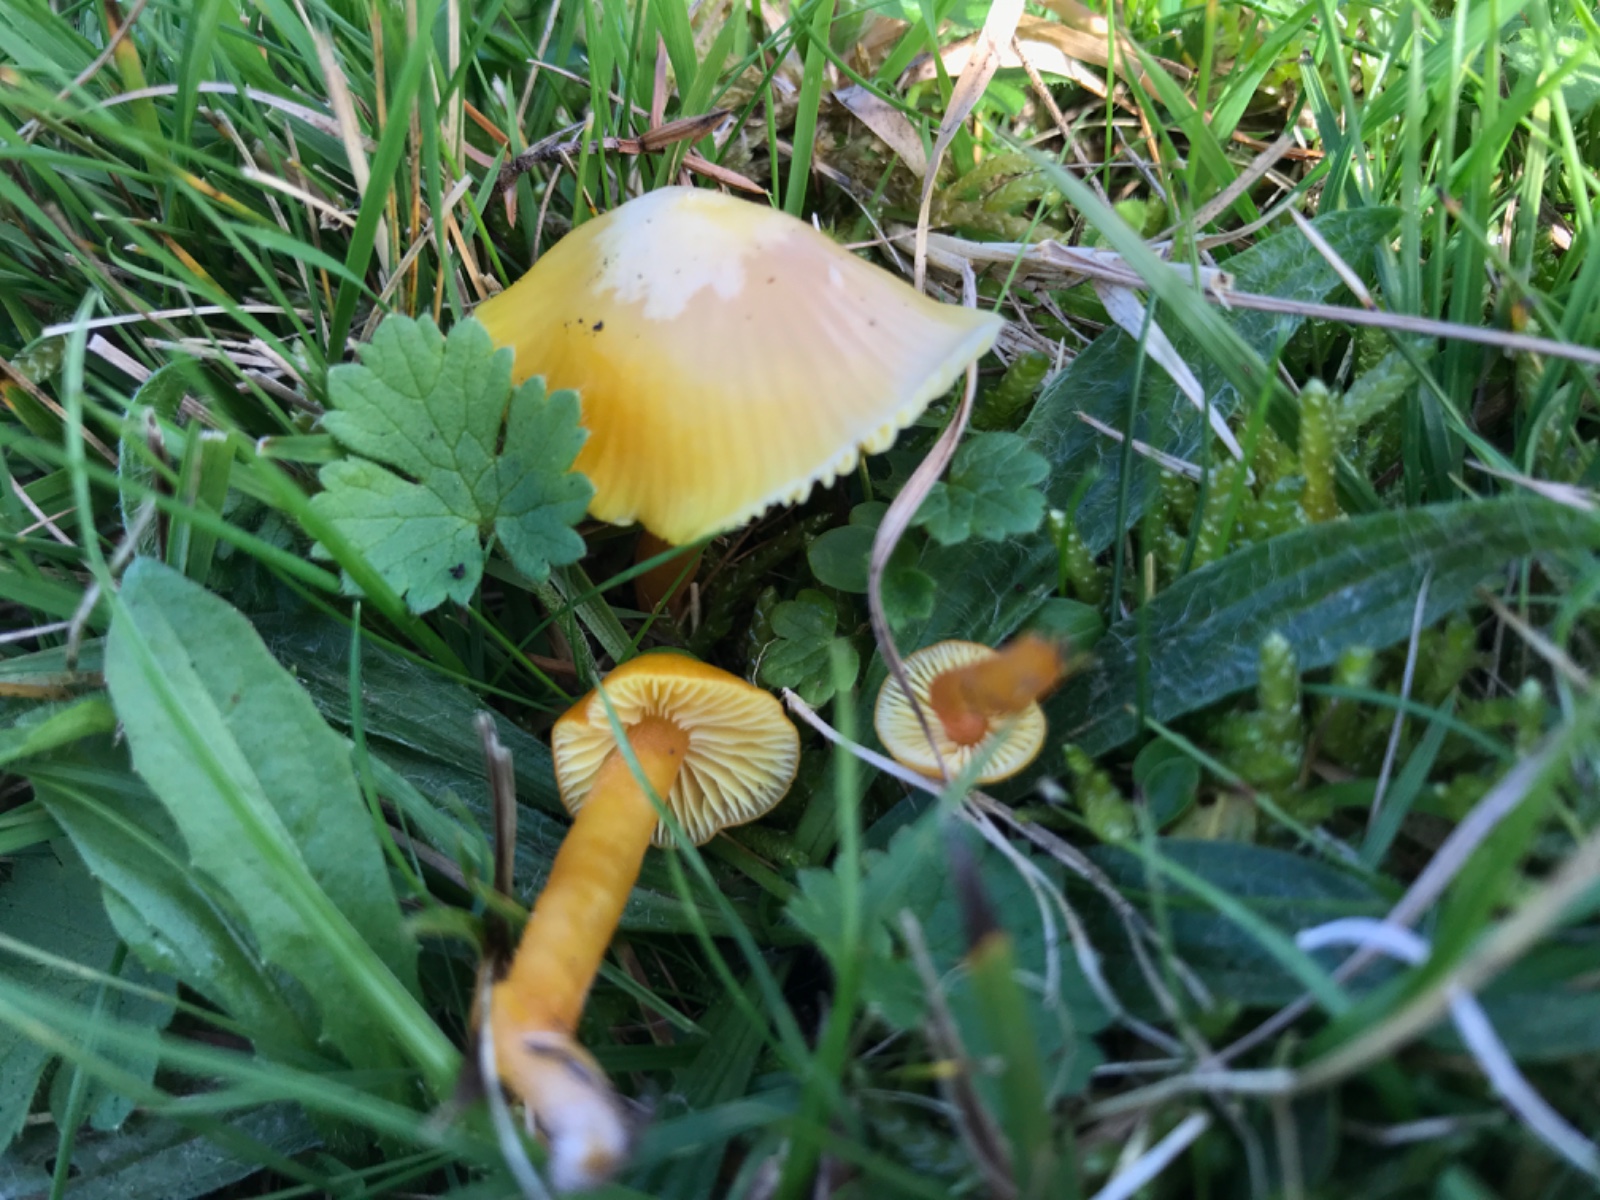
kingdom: Fungi
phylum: Basidiomycota
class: Agaricomycetes
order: Agaricales
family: Hygrophoraceae
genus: Hygrocybe
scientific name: Hygrocybe ceracea
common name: voksgul vokshat
